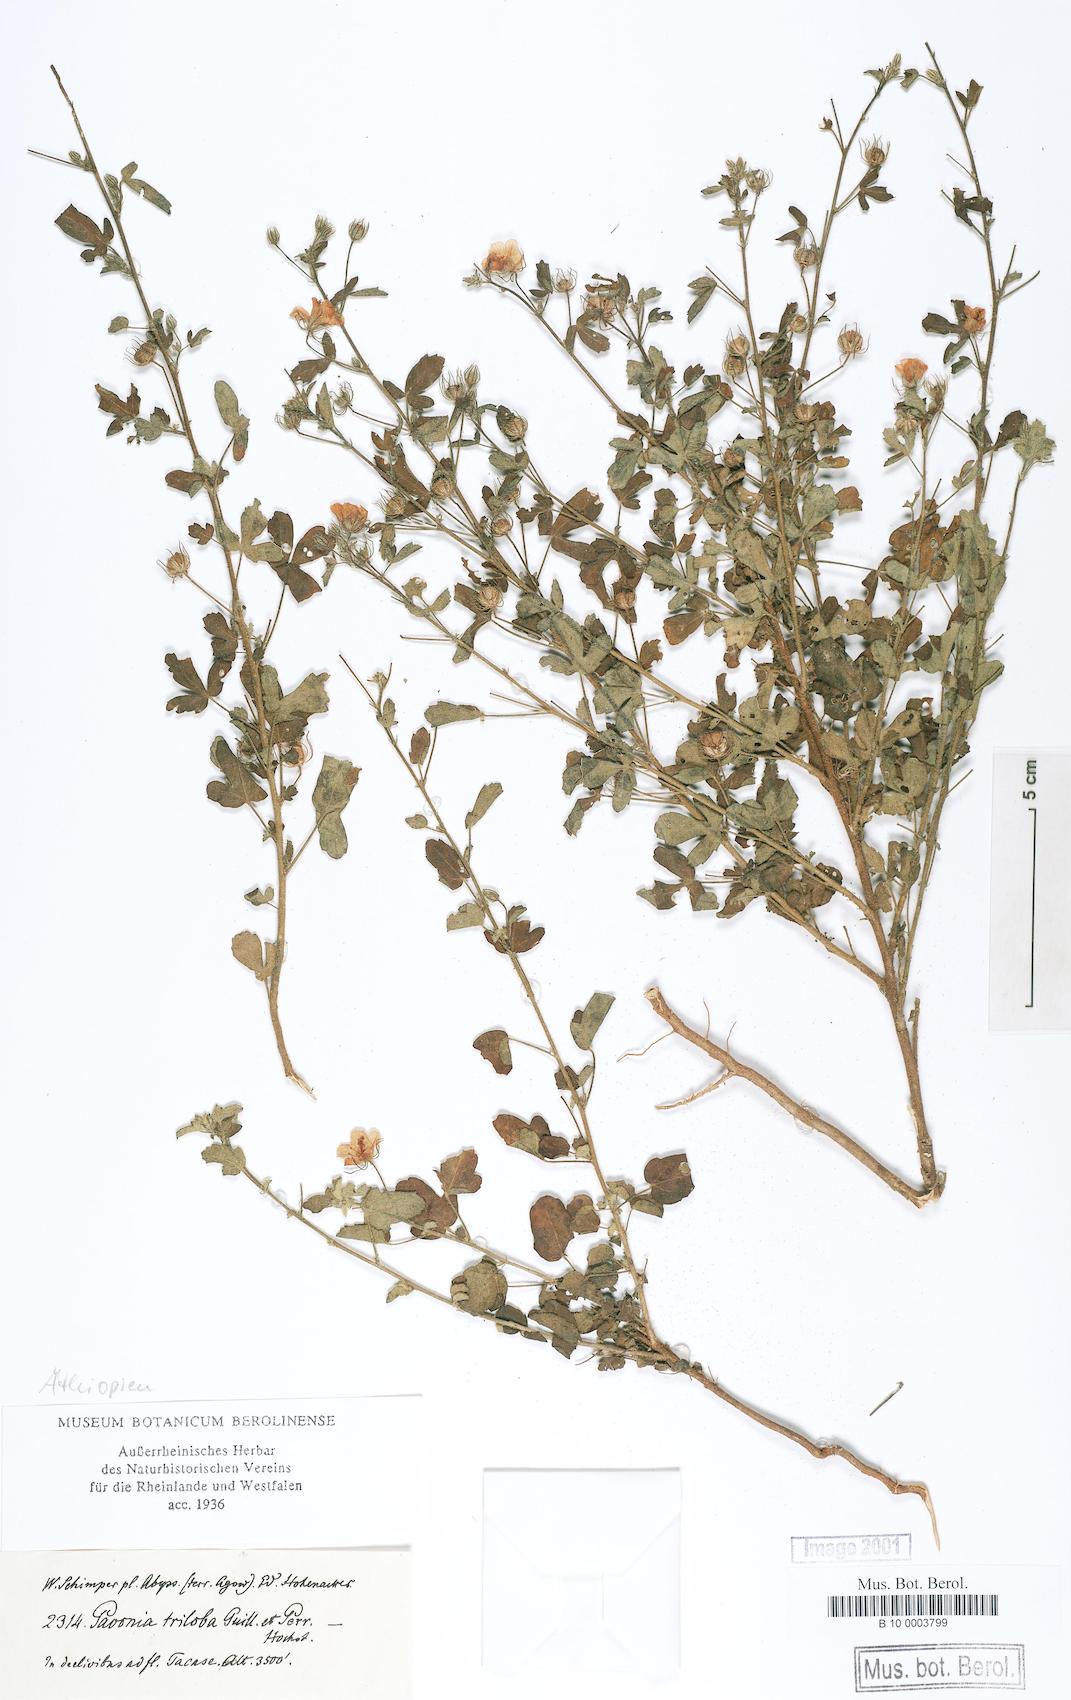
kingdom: Plantae
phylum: Tracheophyta
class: Magnoliopsida
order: Malvales
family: Malvaceae
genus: Pavonia
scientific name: Pavonia
